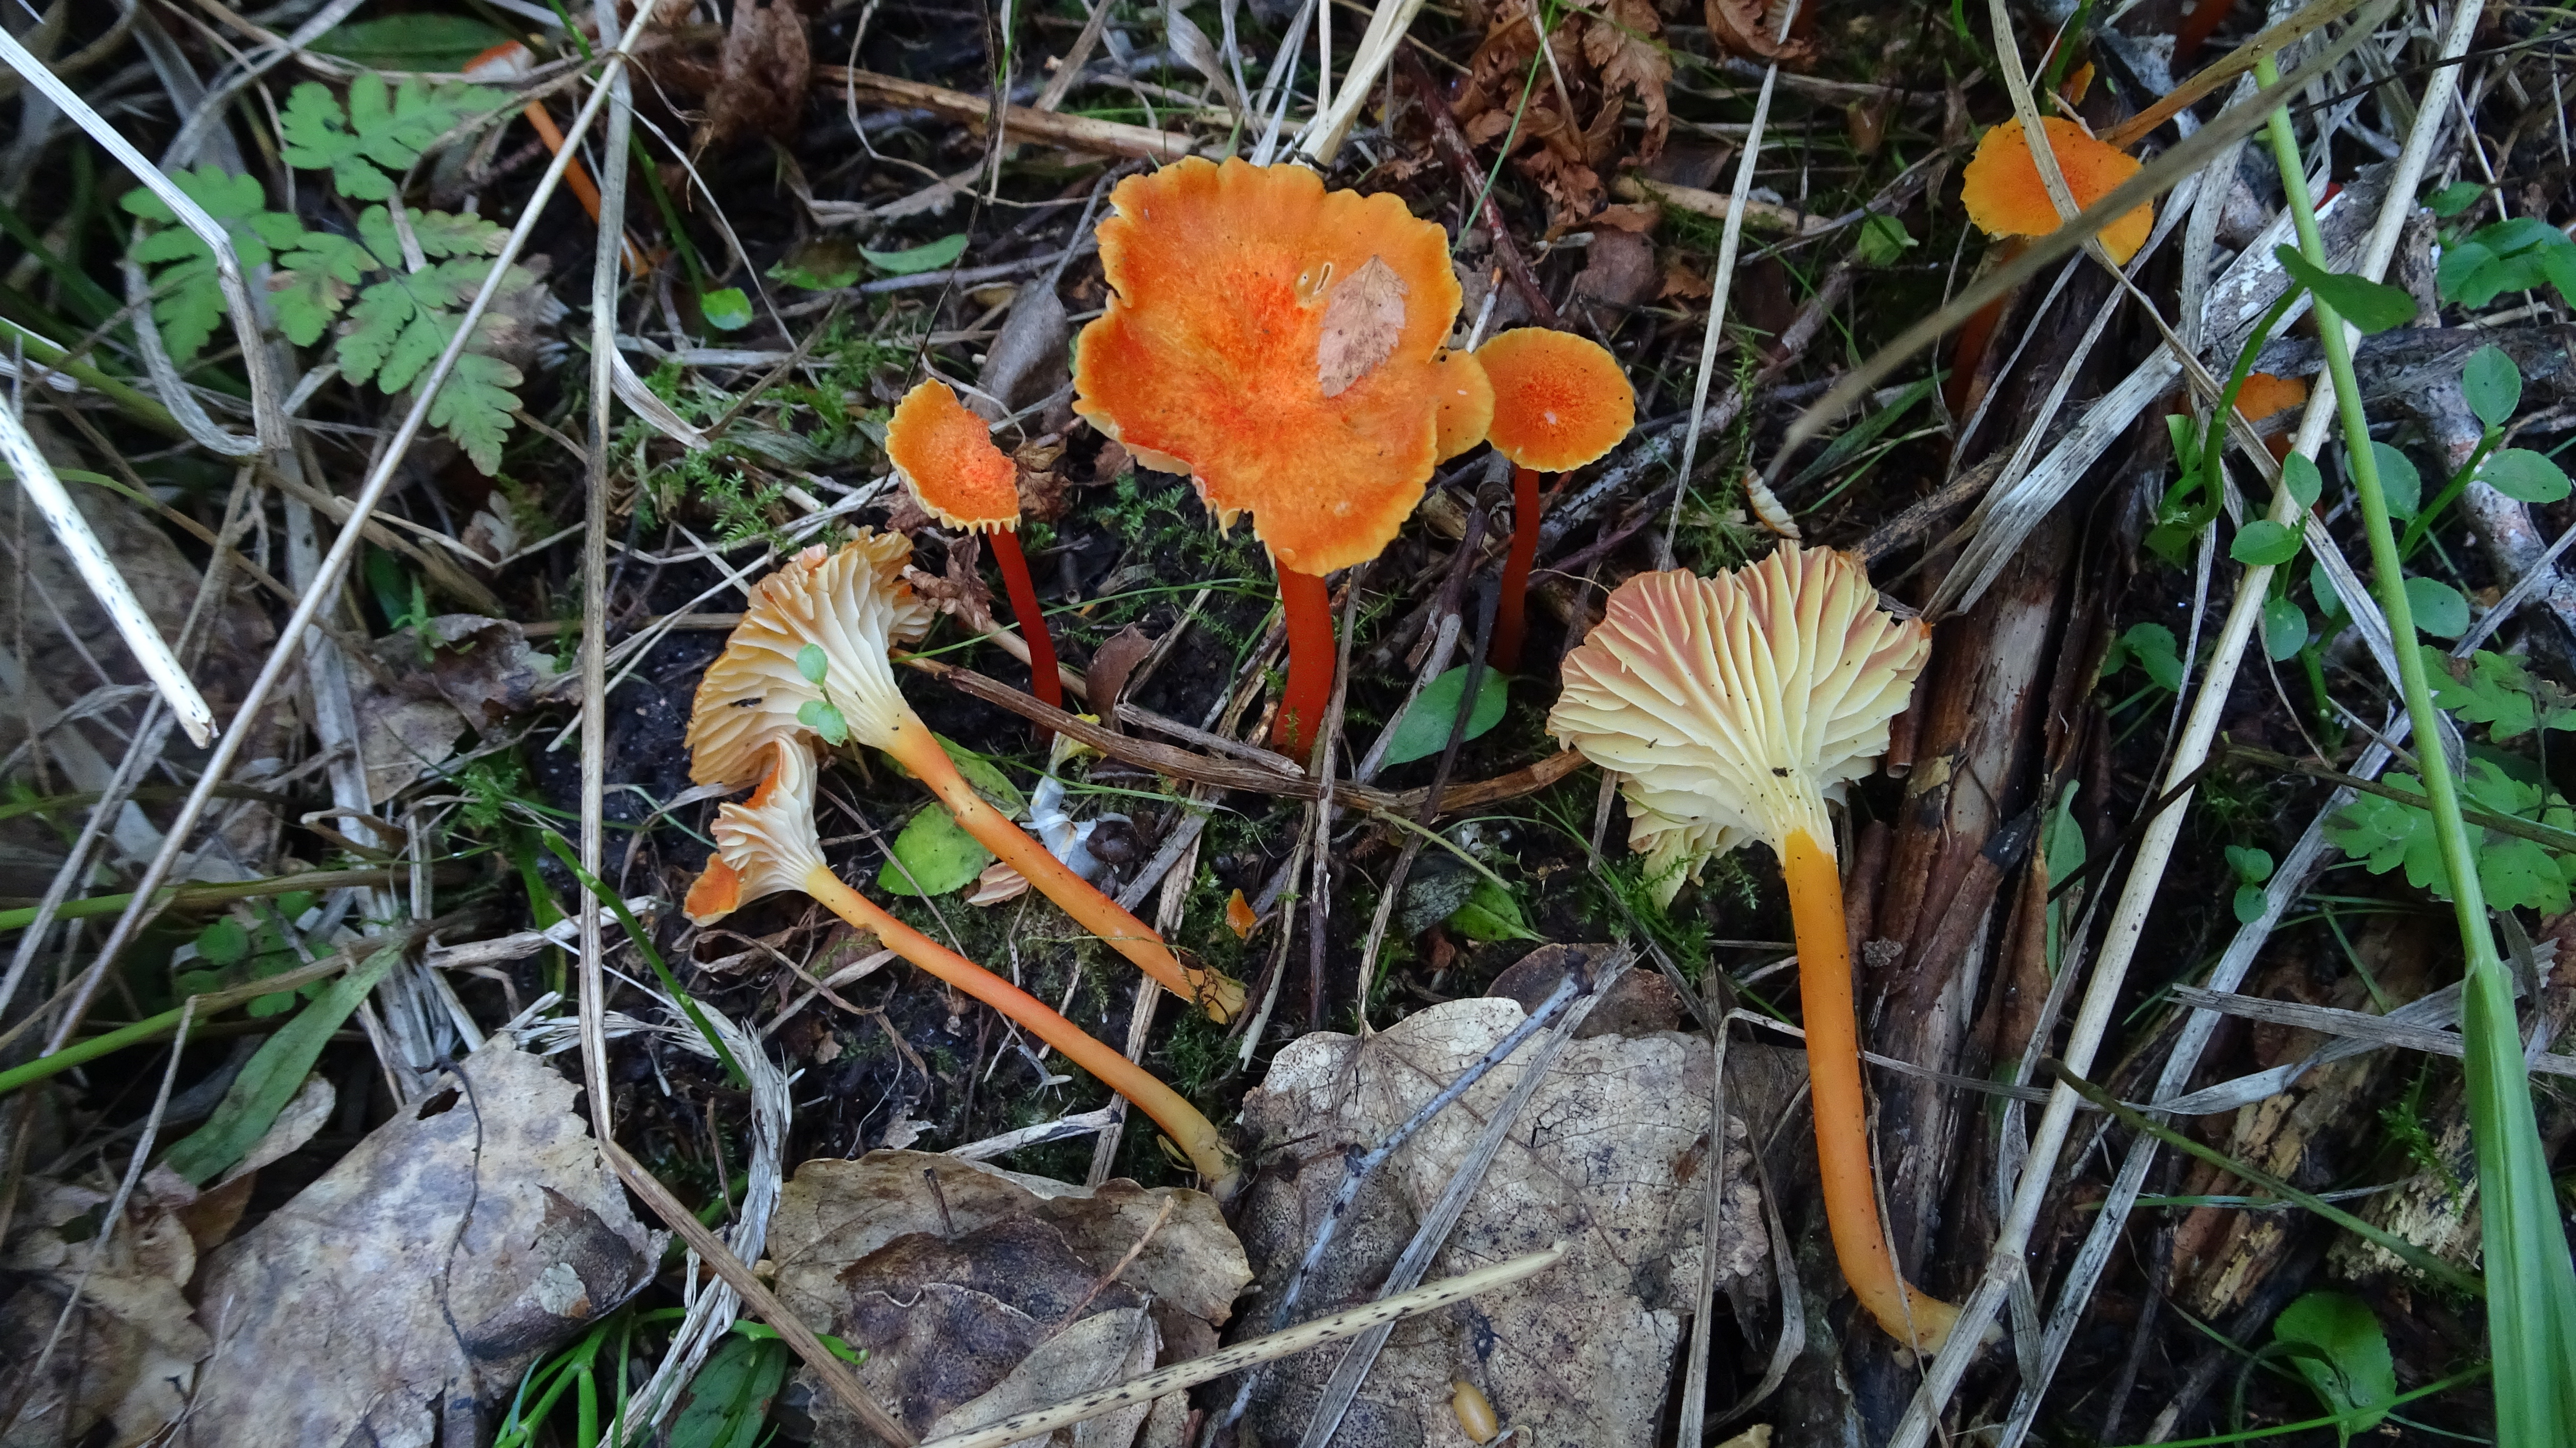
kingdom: Fungi
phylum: Basidiomycota
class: Agaricomycetes
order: Agaricales
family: Hygrophoraceae
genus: Hygrocybe
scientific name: Hygrocybe cantharellus
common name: Goblet waxcap
